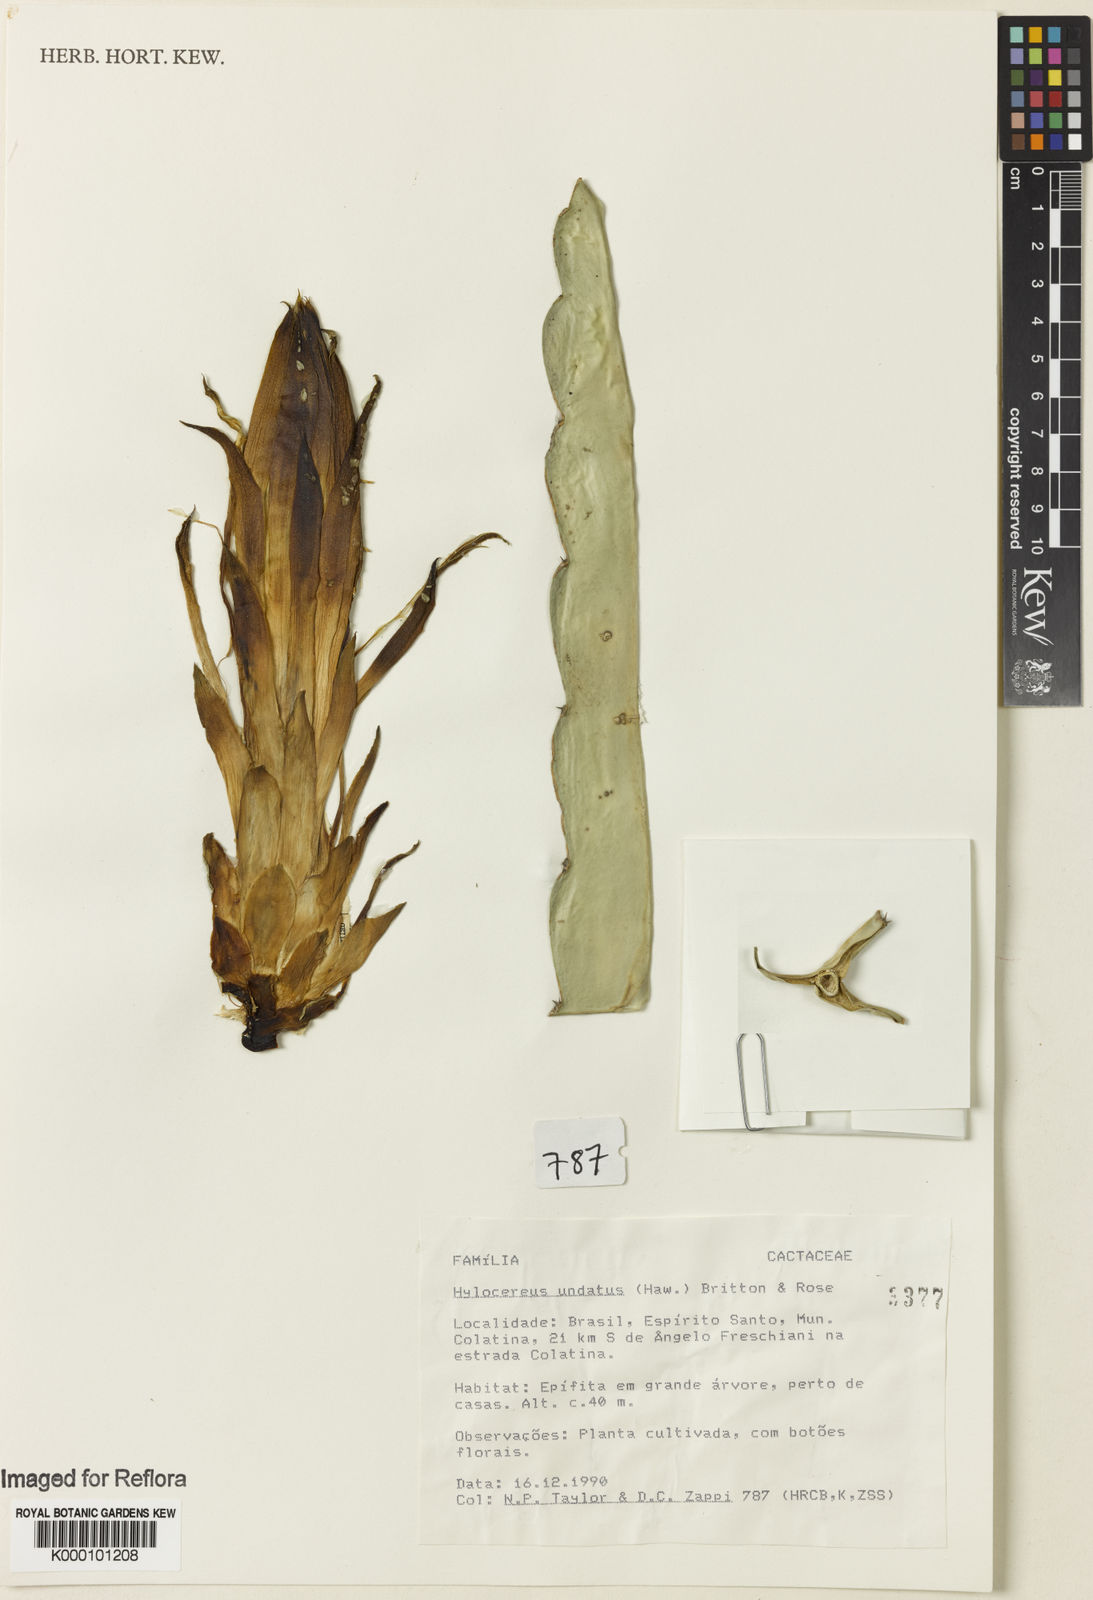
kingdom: Plantae
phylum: Tracheophyta
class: Magnoliopsida
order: Caryophyllales
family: Cactaceae
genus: Selenicereus
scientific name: Selenicereus
